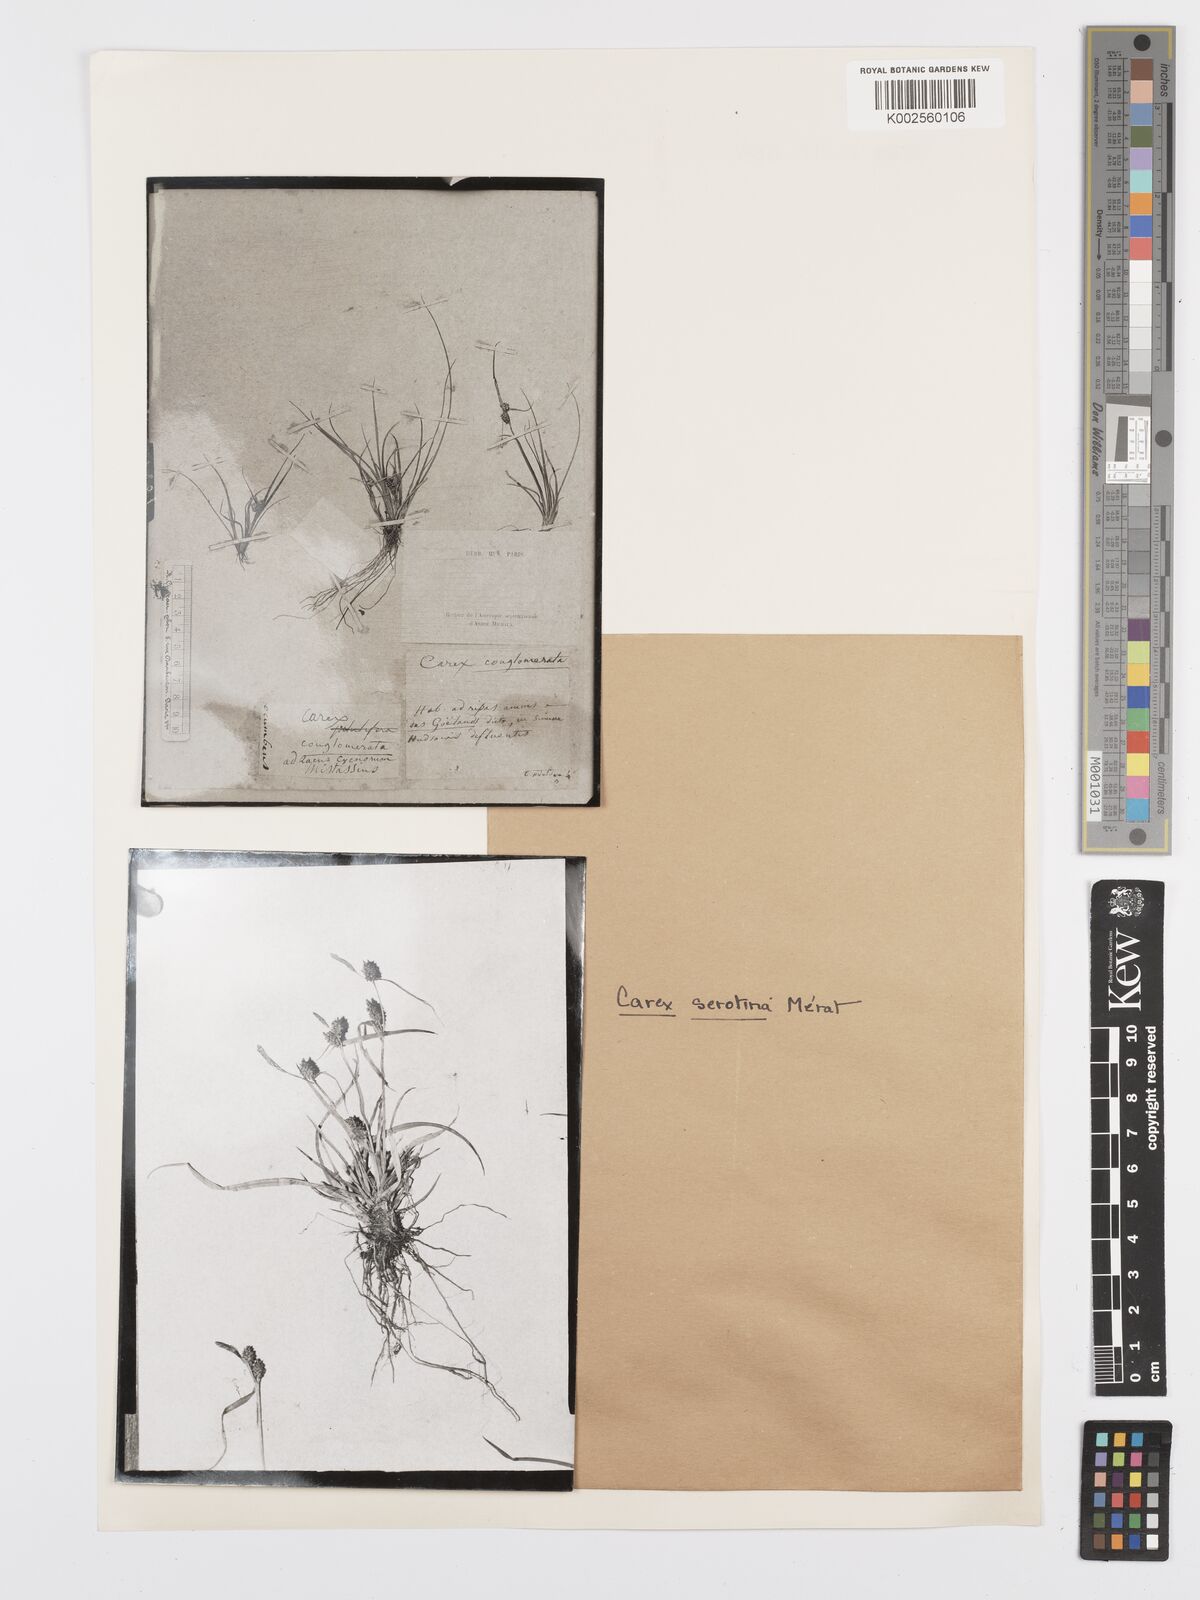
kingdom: Plantae
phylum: Tracheophyta
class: Liliopsida
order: Poales
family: Cyperaceae
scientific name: Cyperaceae
